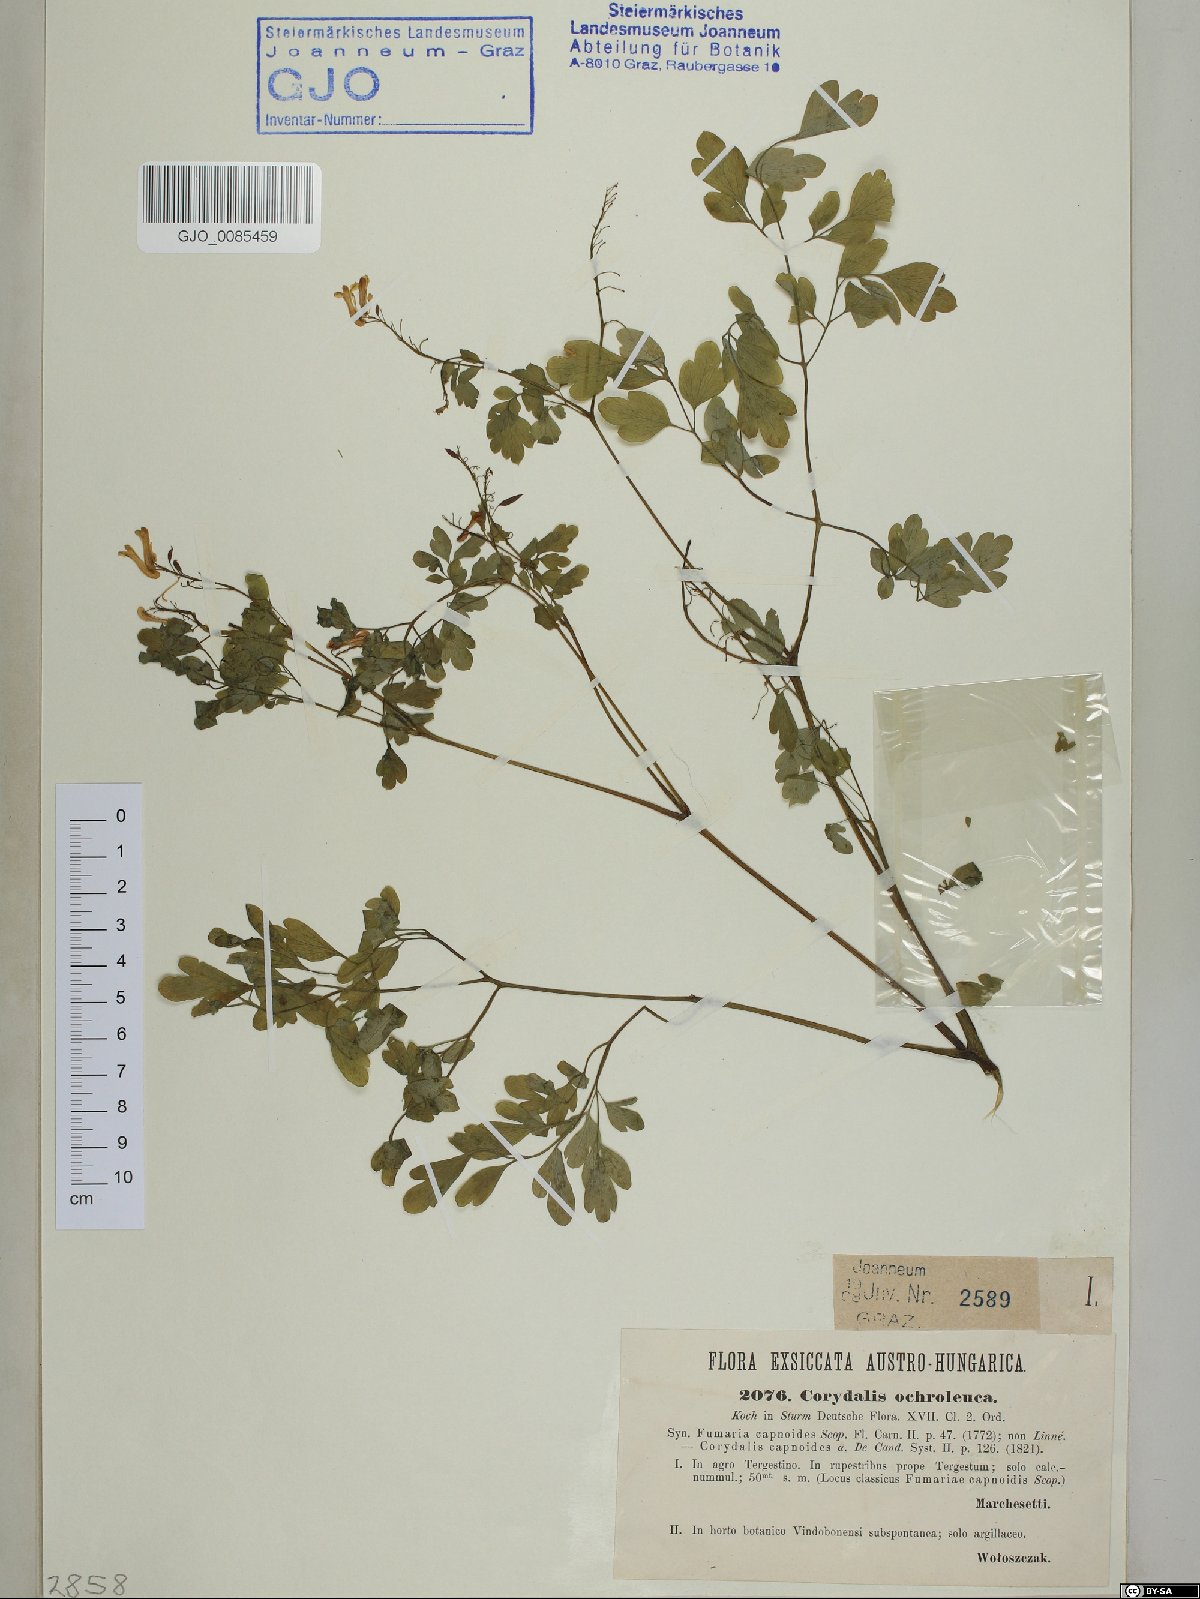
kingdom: Plantae
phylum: Tracheophyta
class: Magnoliopsida
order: Ranunculales
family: Papaveraceae
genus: Pseudofumaria
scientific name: Pseudofumaria alba
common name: Pale corydalis
